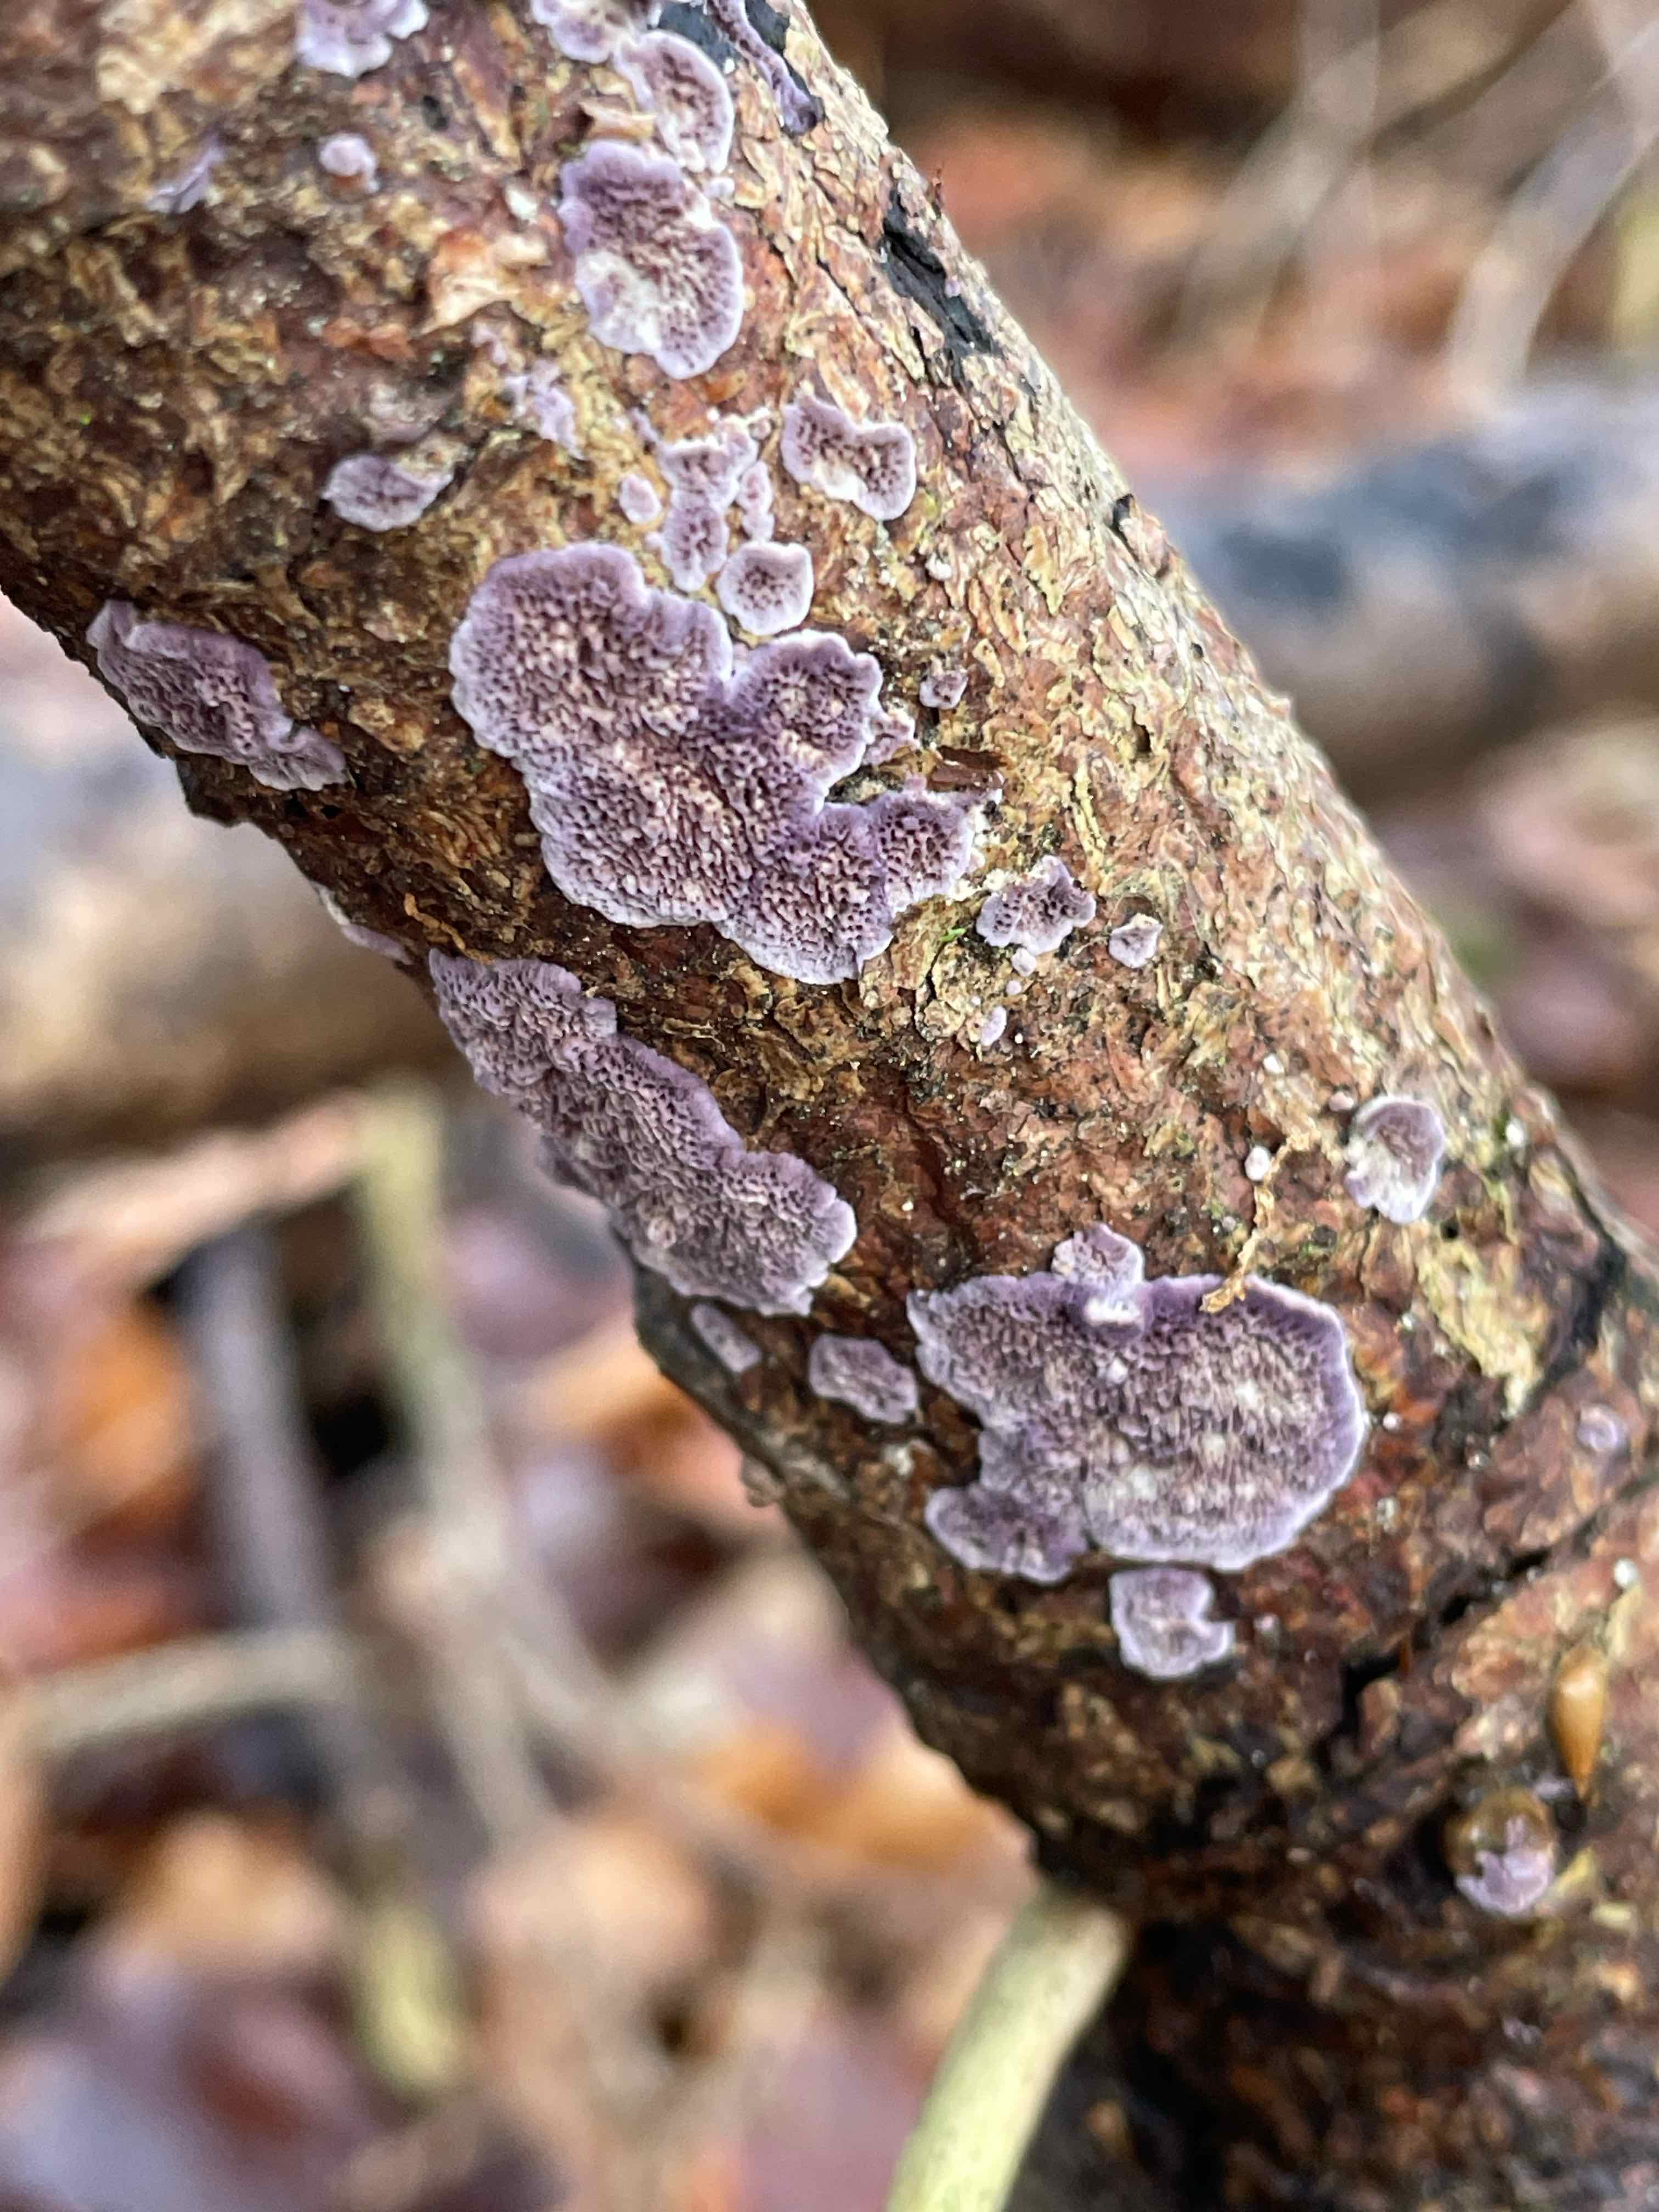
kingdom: Fungi
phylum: Basidiomycota
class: Agaricomycetes
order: Hymenochaetales
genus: Trichaptum
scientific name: Trichaptum abietinum
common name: almindelig violporesvamp
